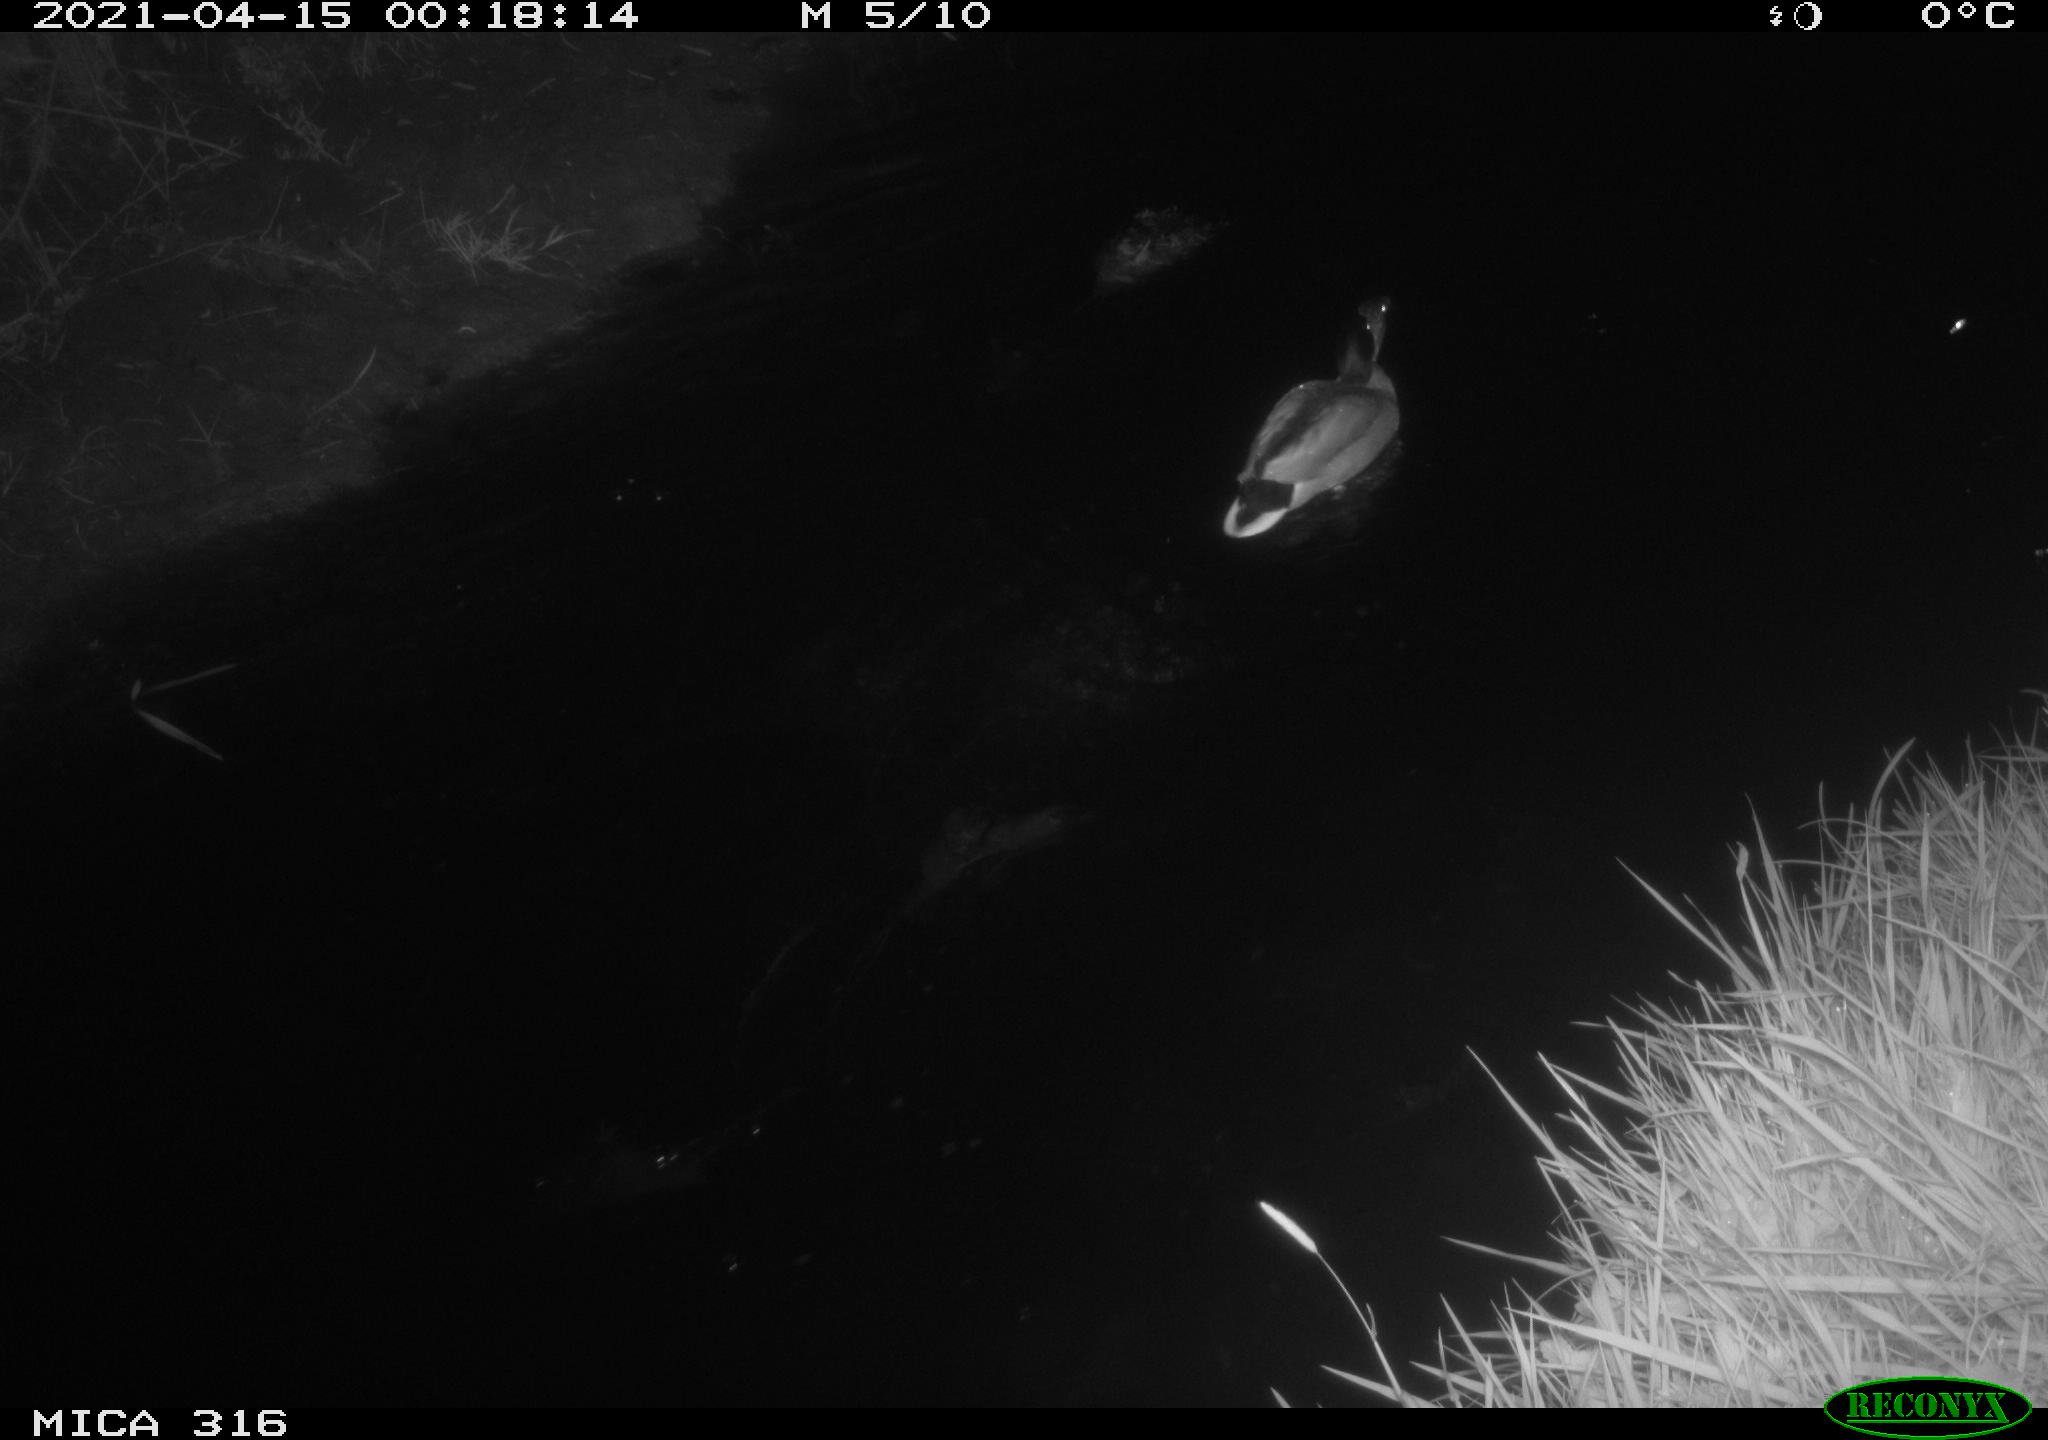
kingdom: Animalia
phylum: Chordata
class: Aves
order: Anseriformes
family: Anatidae
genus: Anas
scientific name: Anas platyrhynchos
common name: Mallard
